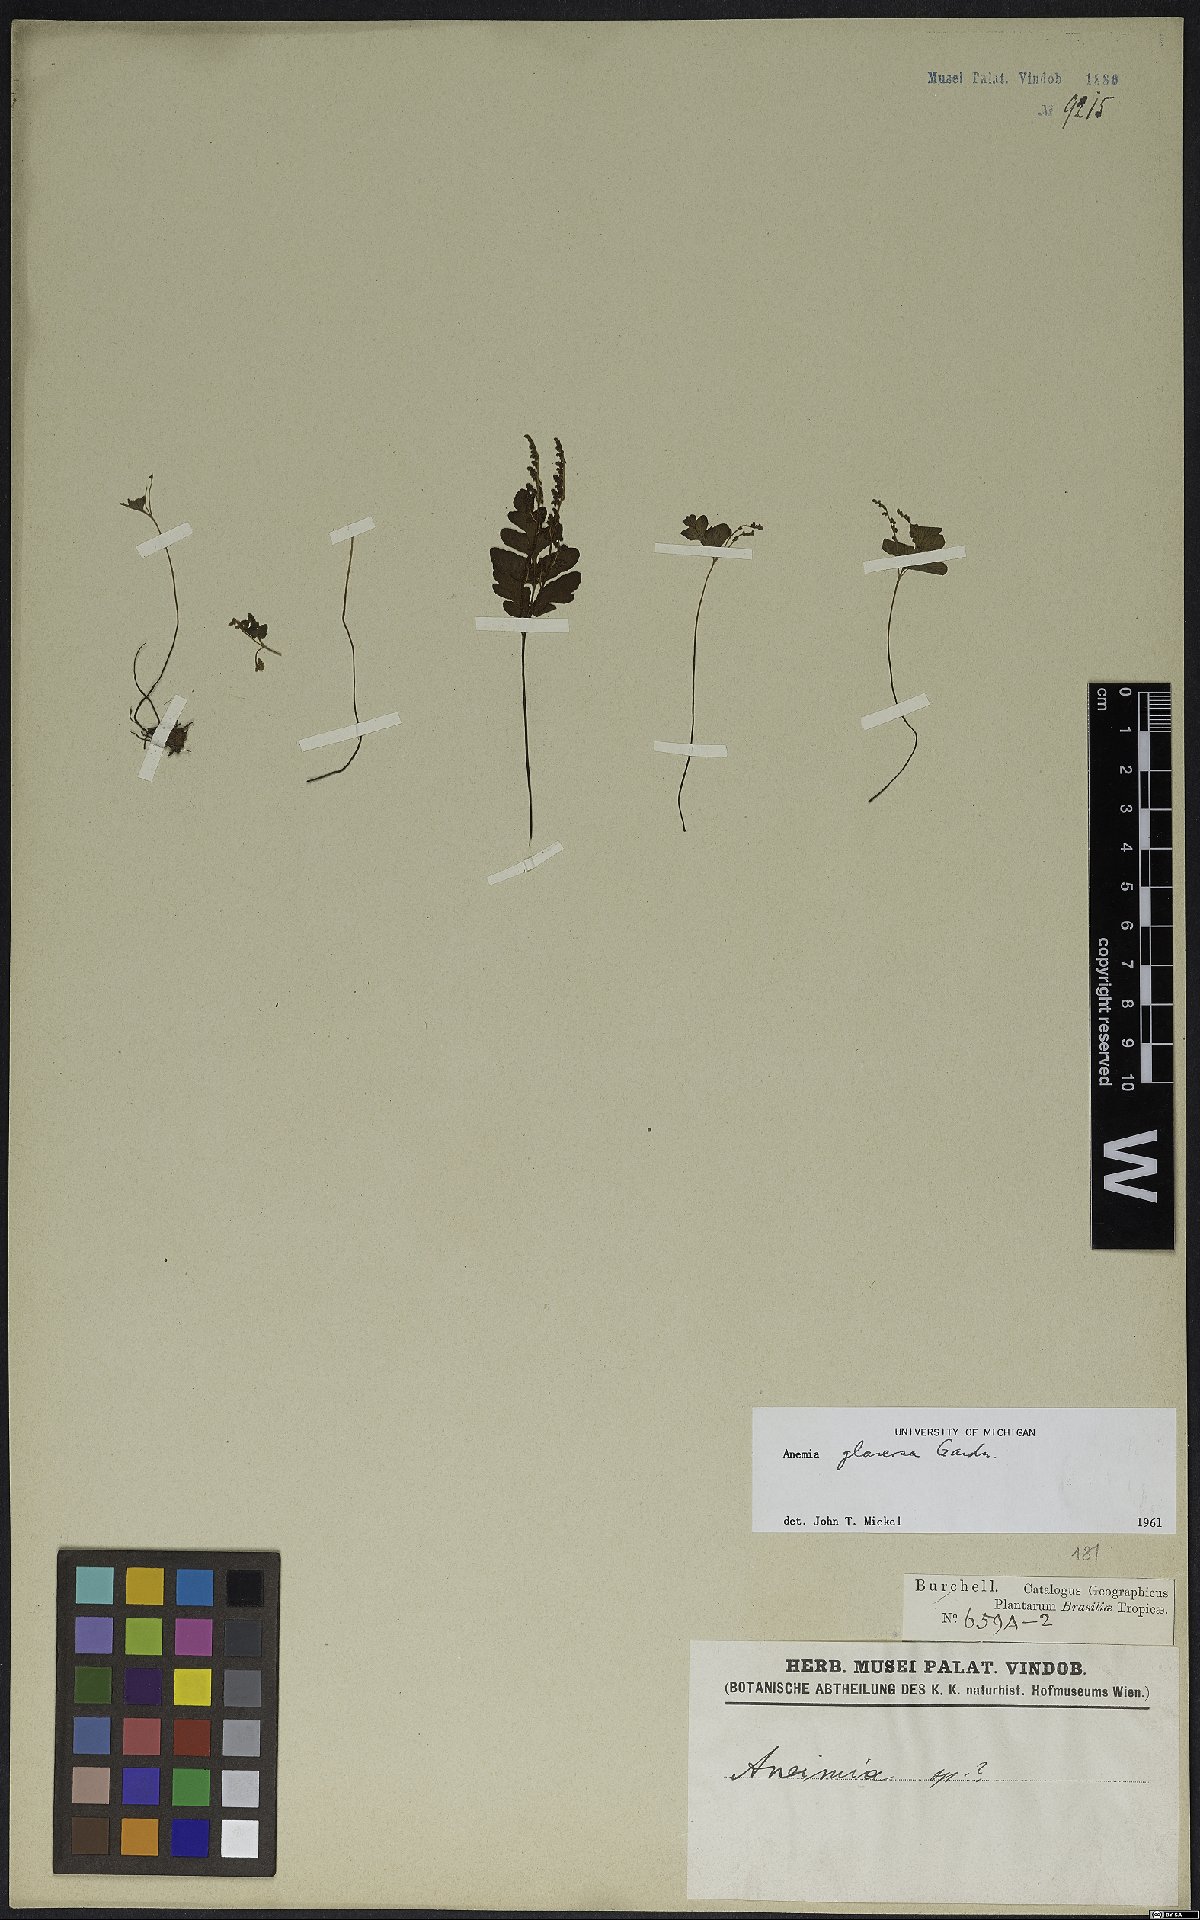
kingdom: Plantae
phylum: Tracheophyta
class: Polypodiopsida
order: Schizaeales
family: Anemiaceae
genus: Anemia
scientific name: Anemia glareosa
